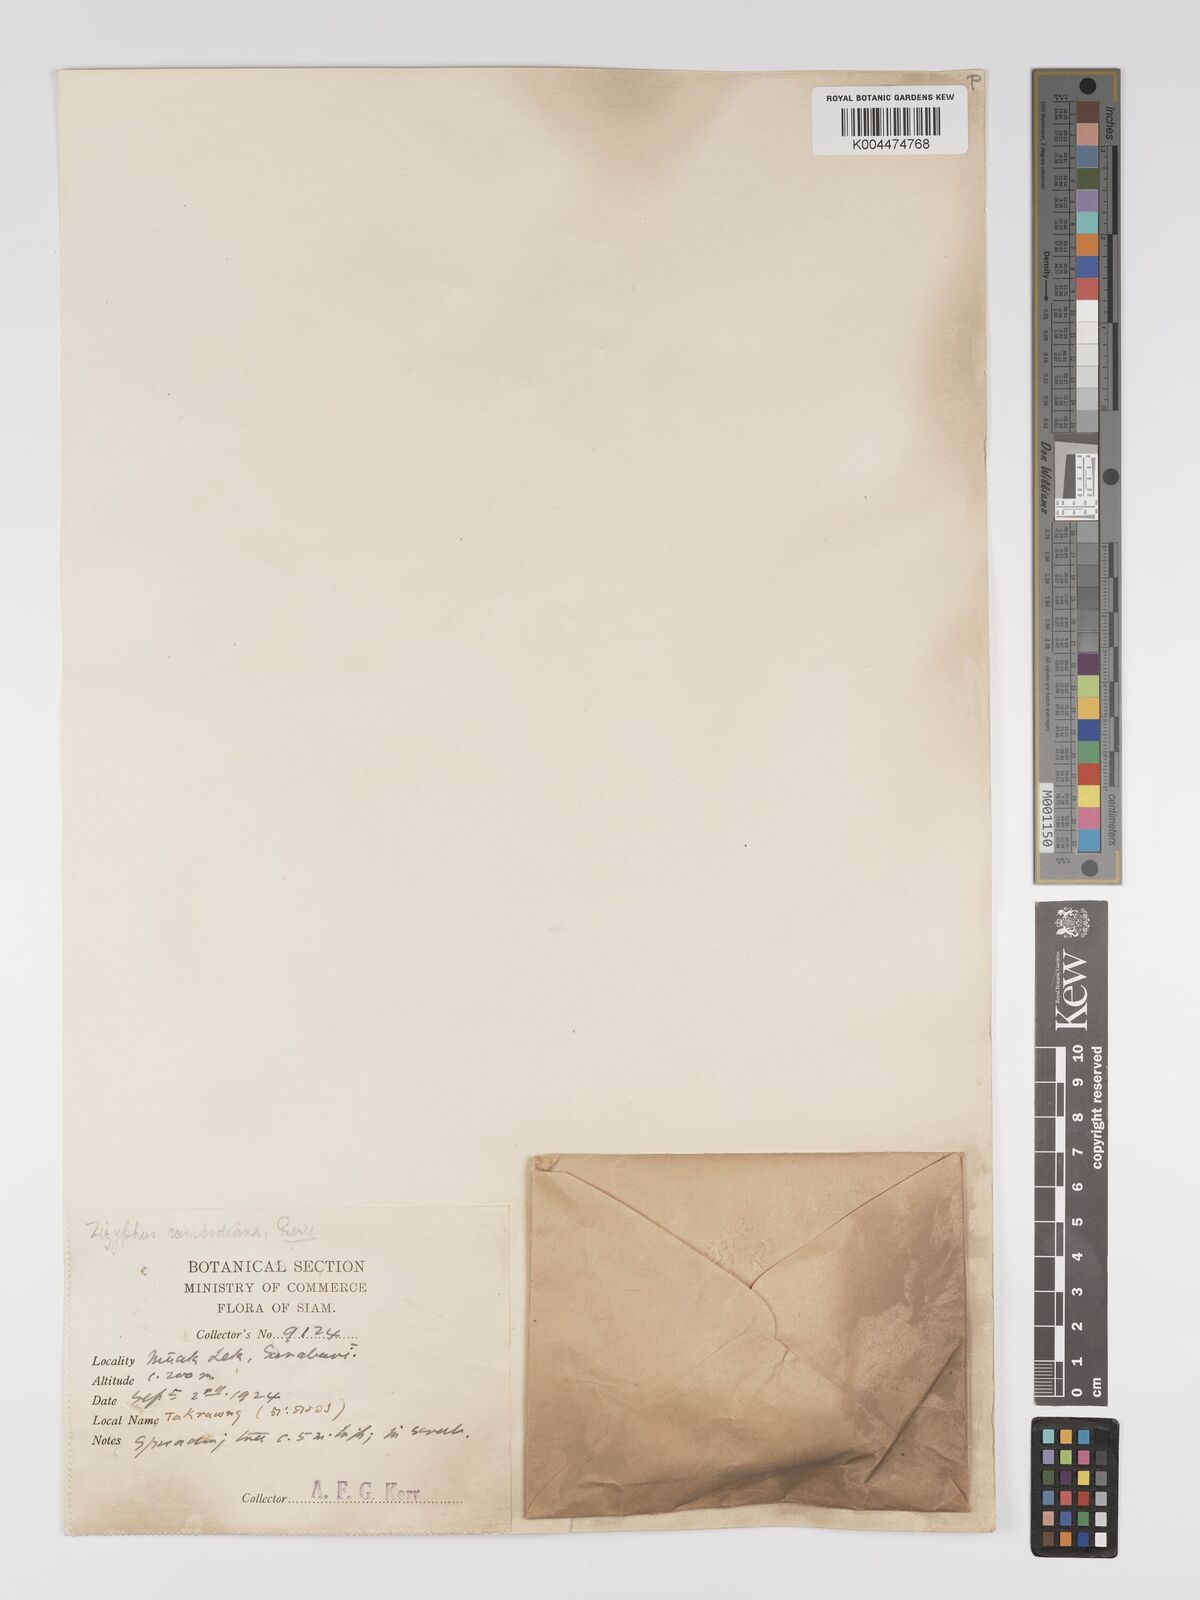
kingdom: Plantae
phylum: Tracheophyta
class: Magnoliopsida
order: Rosales
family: Rhamnaceae
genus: Ziziphus
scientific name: Ziziphus cambodiana
